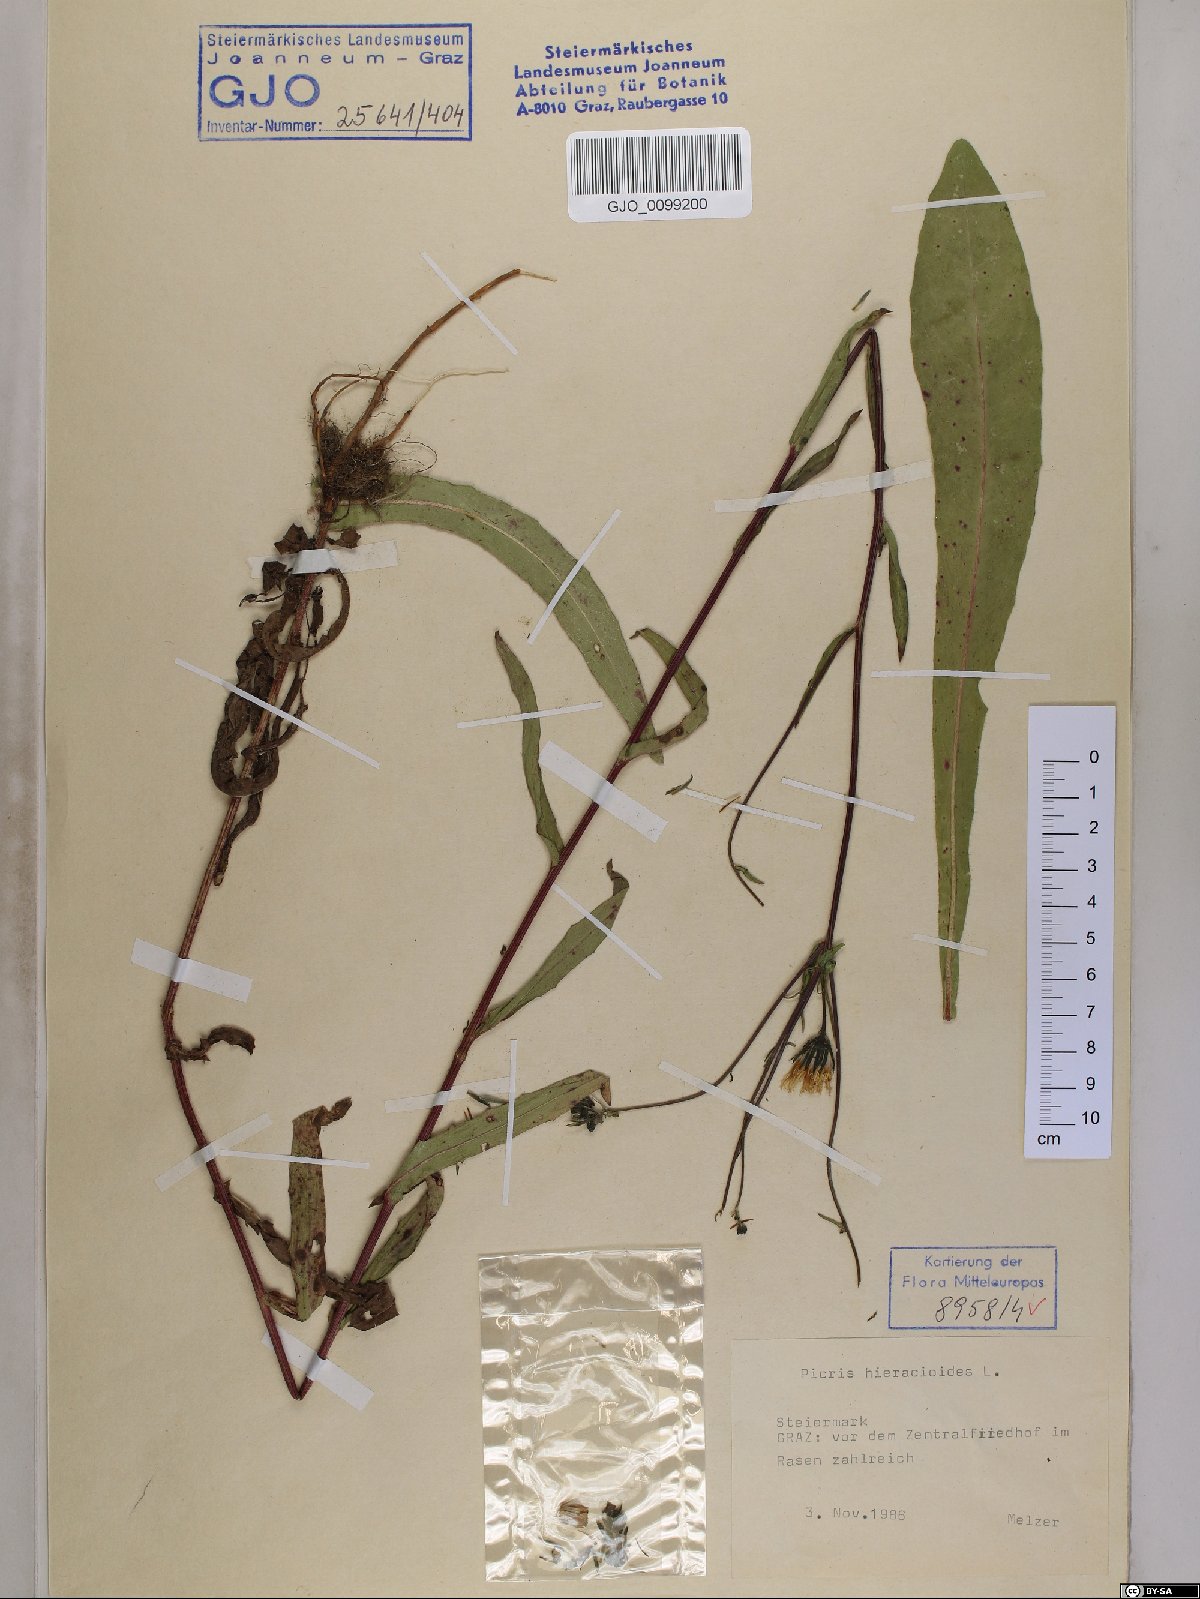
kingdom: Plantae
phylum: Tracheophyta
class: Magnoliopsida
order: Asterales
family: Asteraceae
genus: Picris
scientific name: Picris hieracioides
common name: Hawkweed oxtongue
